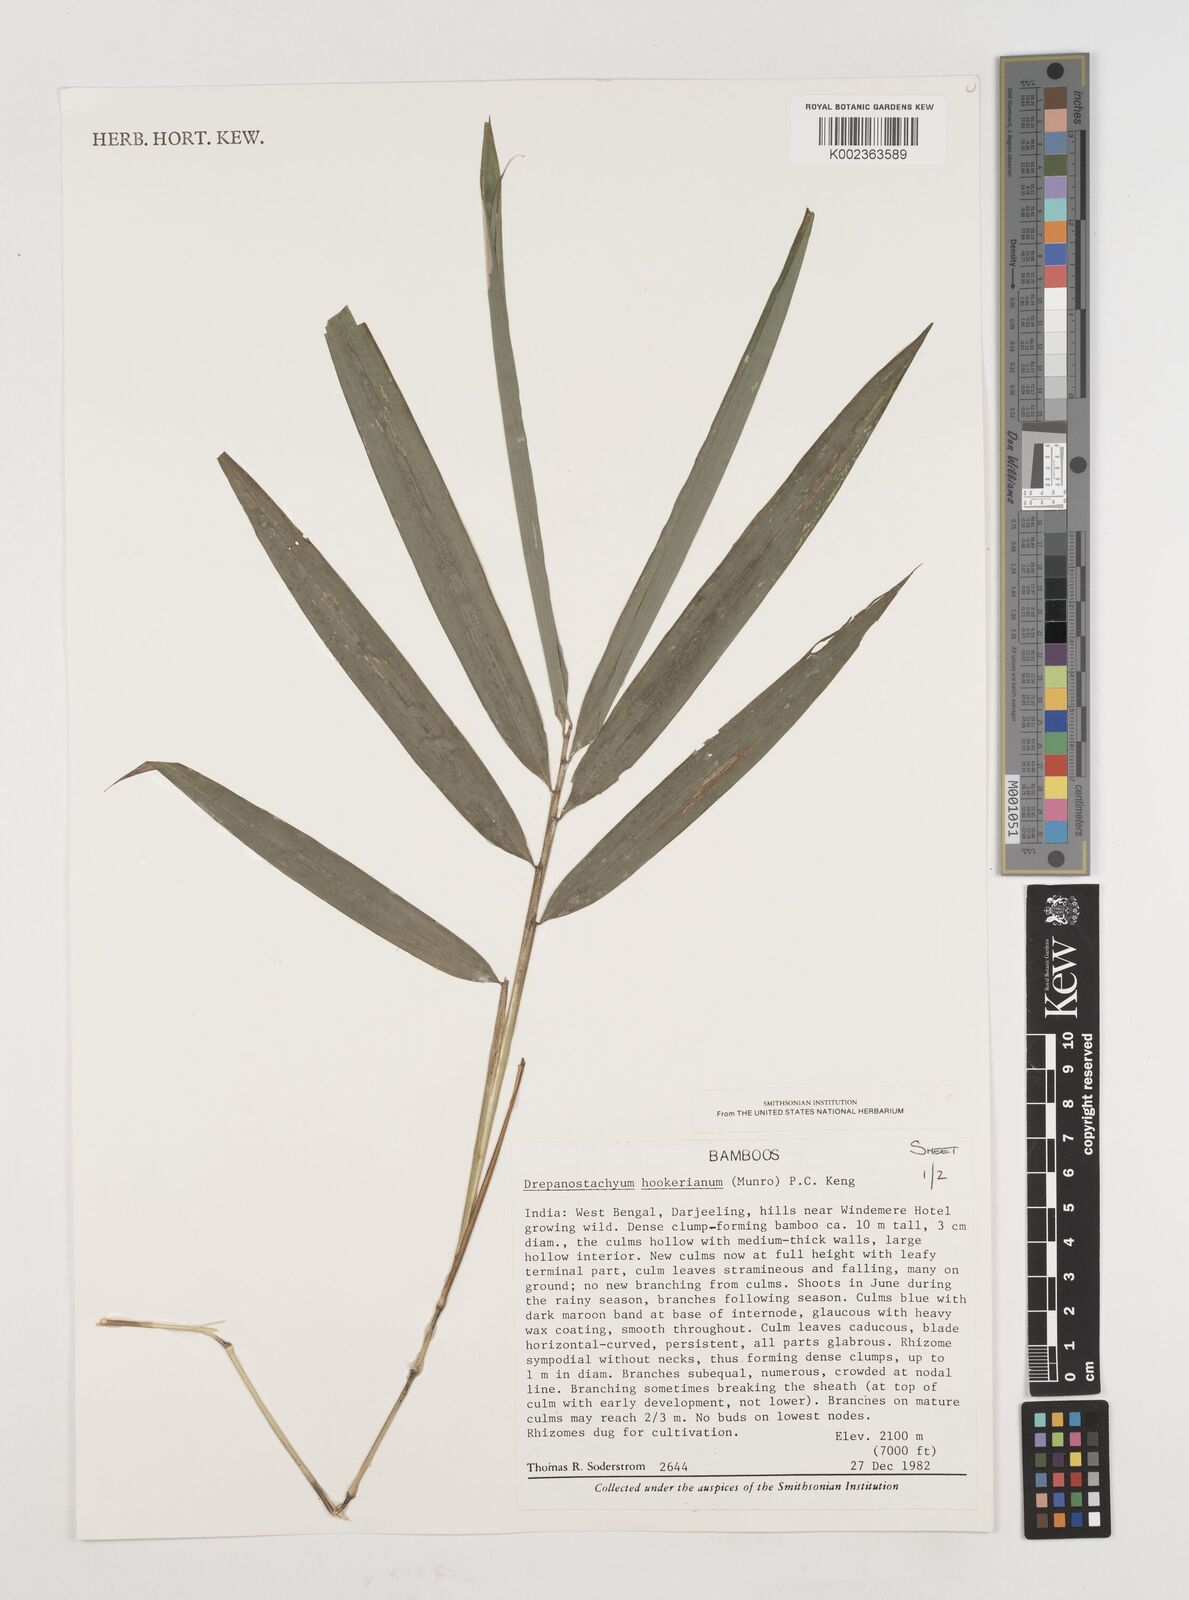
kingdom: Plantae
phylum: Tracheophyta
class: Liliopsida
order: Poales
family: Poaceae
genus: Himalayacalamus
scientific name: Himalayacalamus hookerianus
